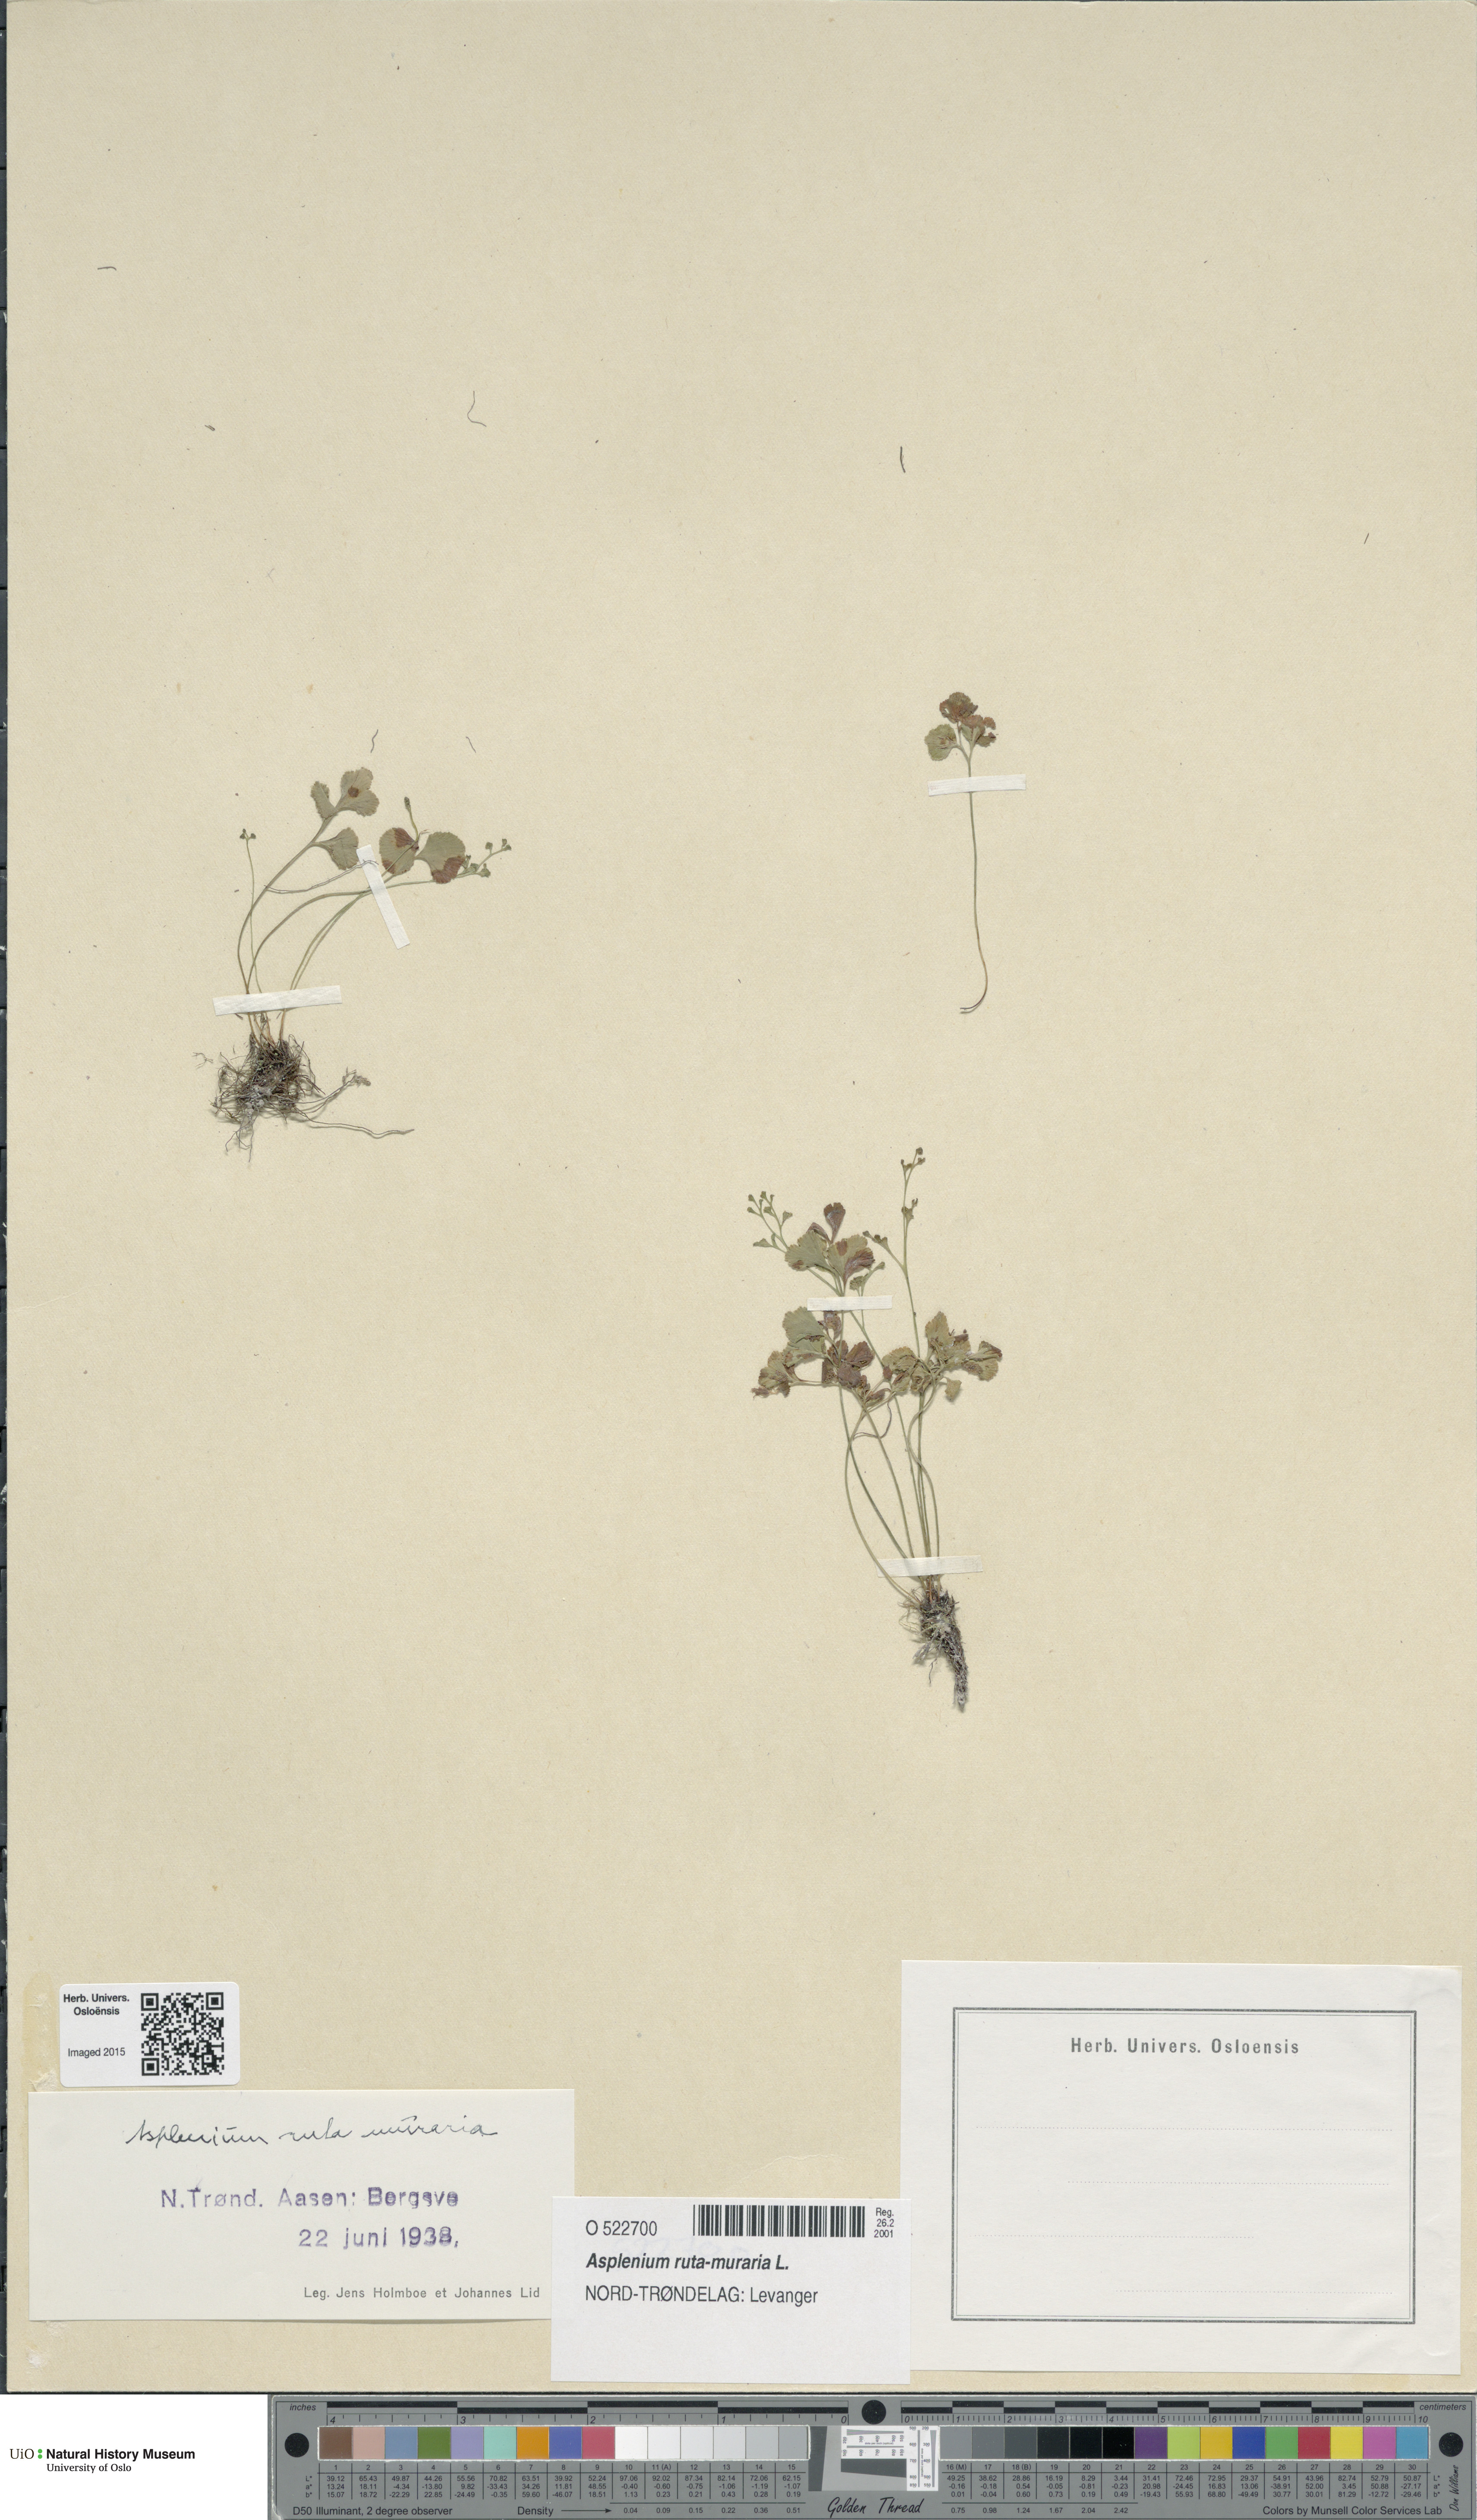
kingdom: Plantae
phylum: Tracheophyta
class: Polypodiopsida
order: Polypodiales
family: Aspleniaceae
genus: Asplenium
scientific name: Asplenium ruta-muraria
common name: Wall-rue
